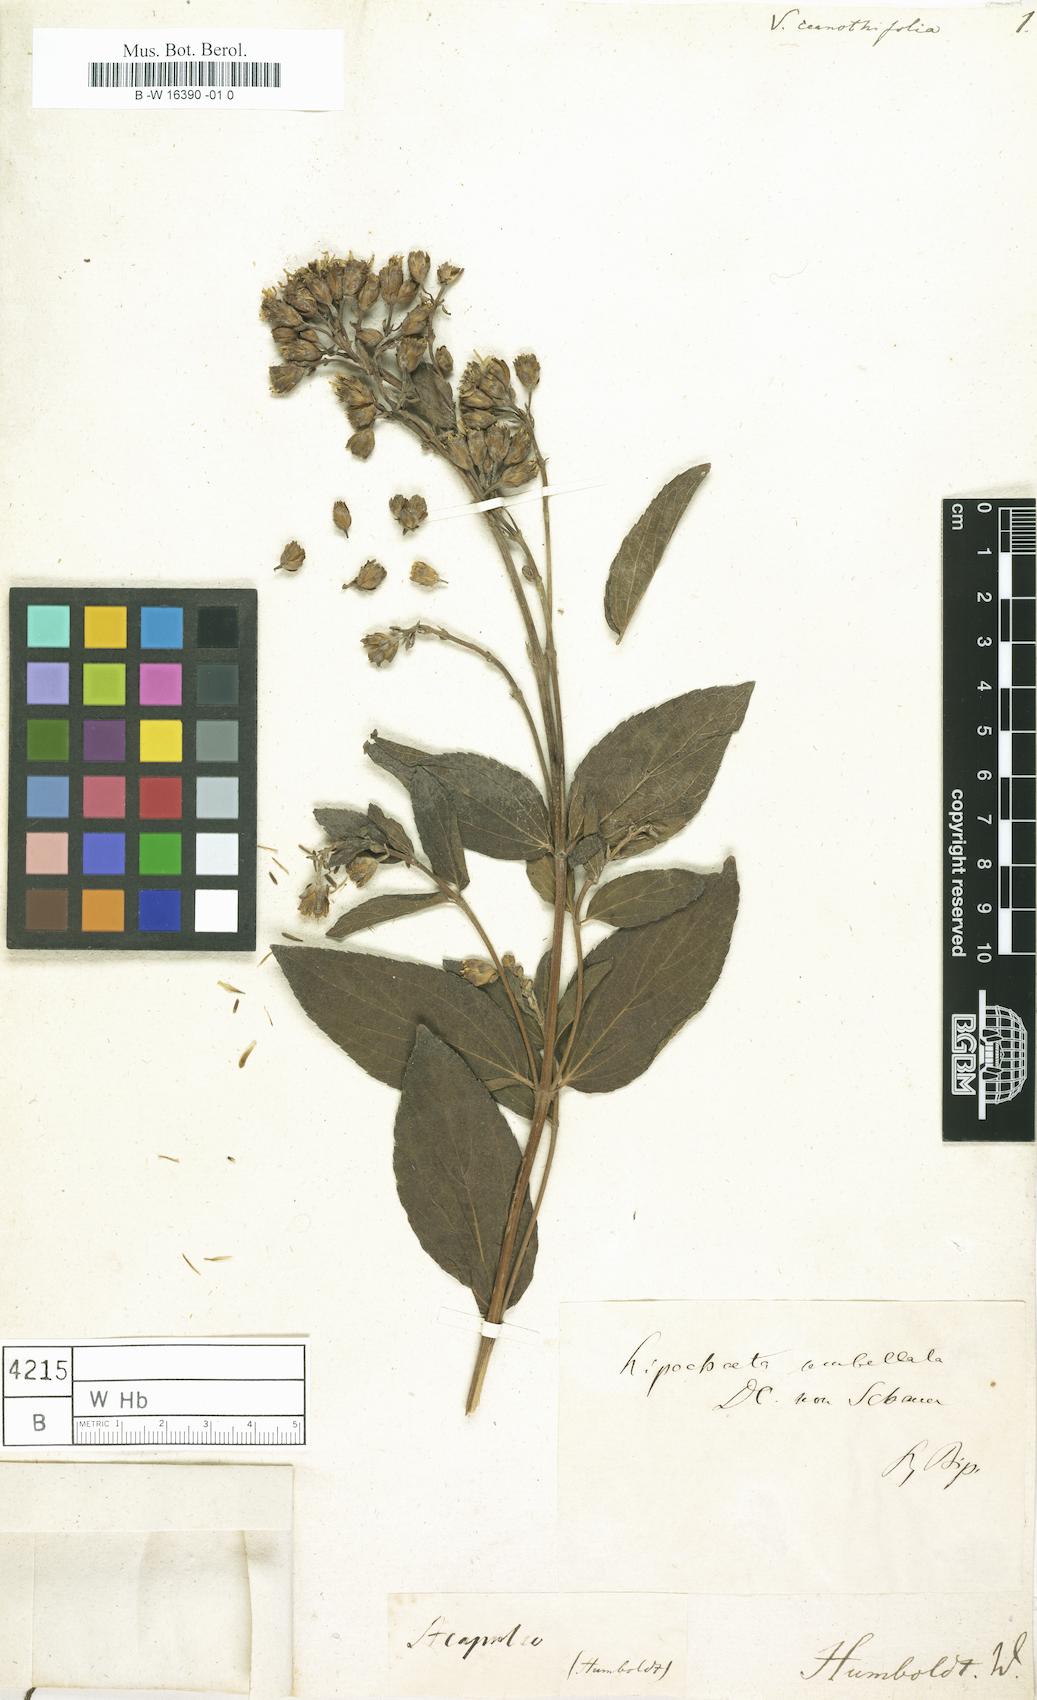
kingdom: Plantae
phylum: Tracheophyta
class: Magnoliopsida
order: Asterales
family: Asteraceae
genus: Lasianthaea
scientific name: Lasianthaea ceanothifolia
